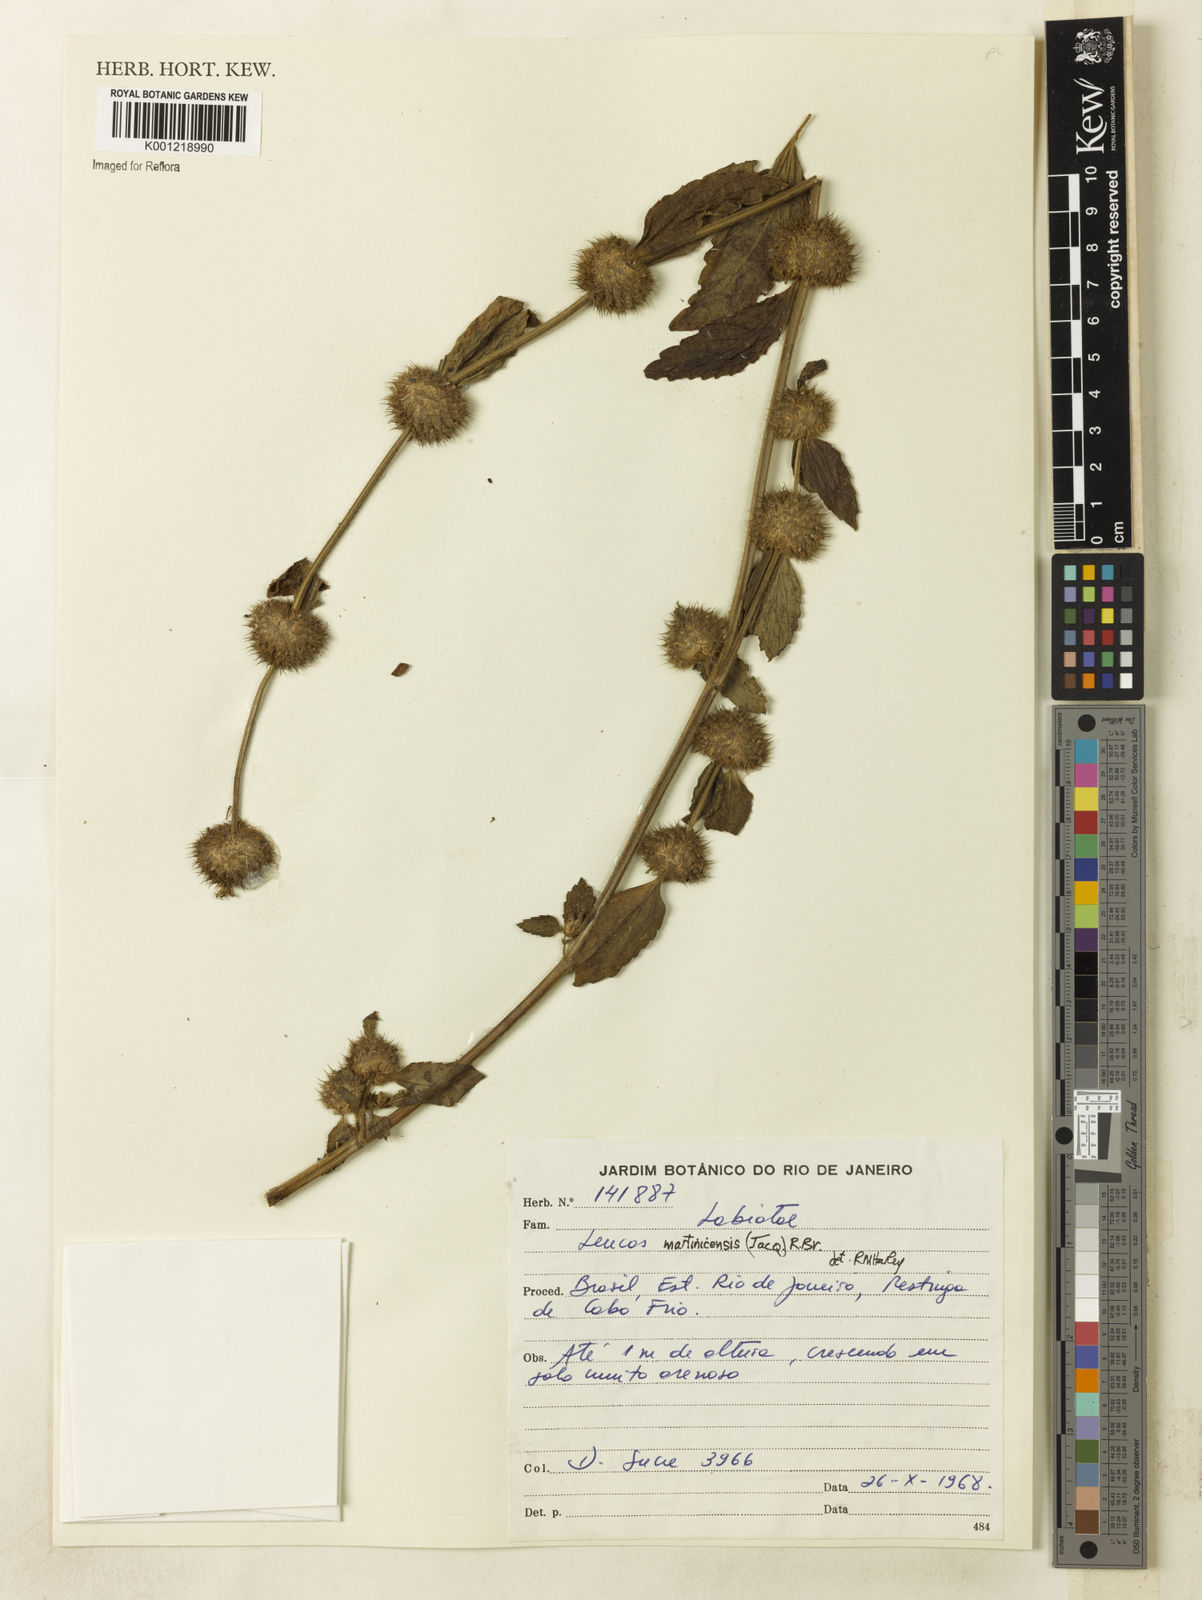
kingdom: Plantae
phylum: Tracheophyta
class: Magnoliopsida
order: Lamiales
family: Lamiaceae
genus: Leucas
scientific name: Leucas martinicensis
